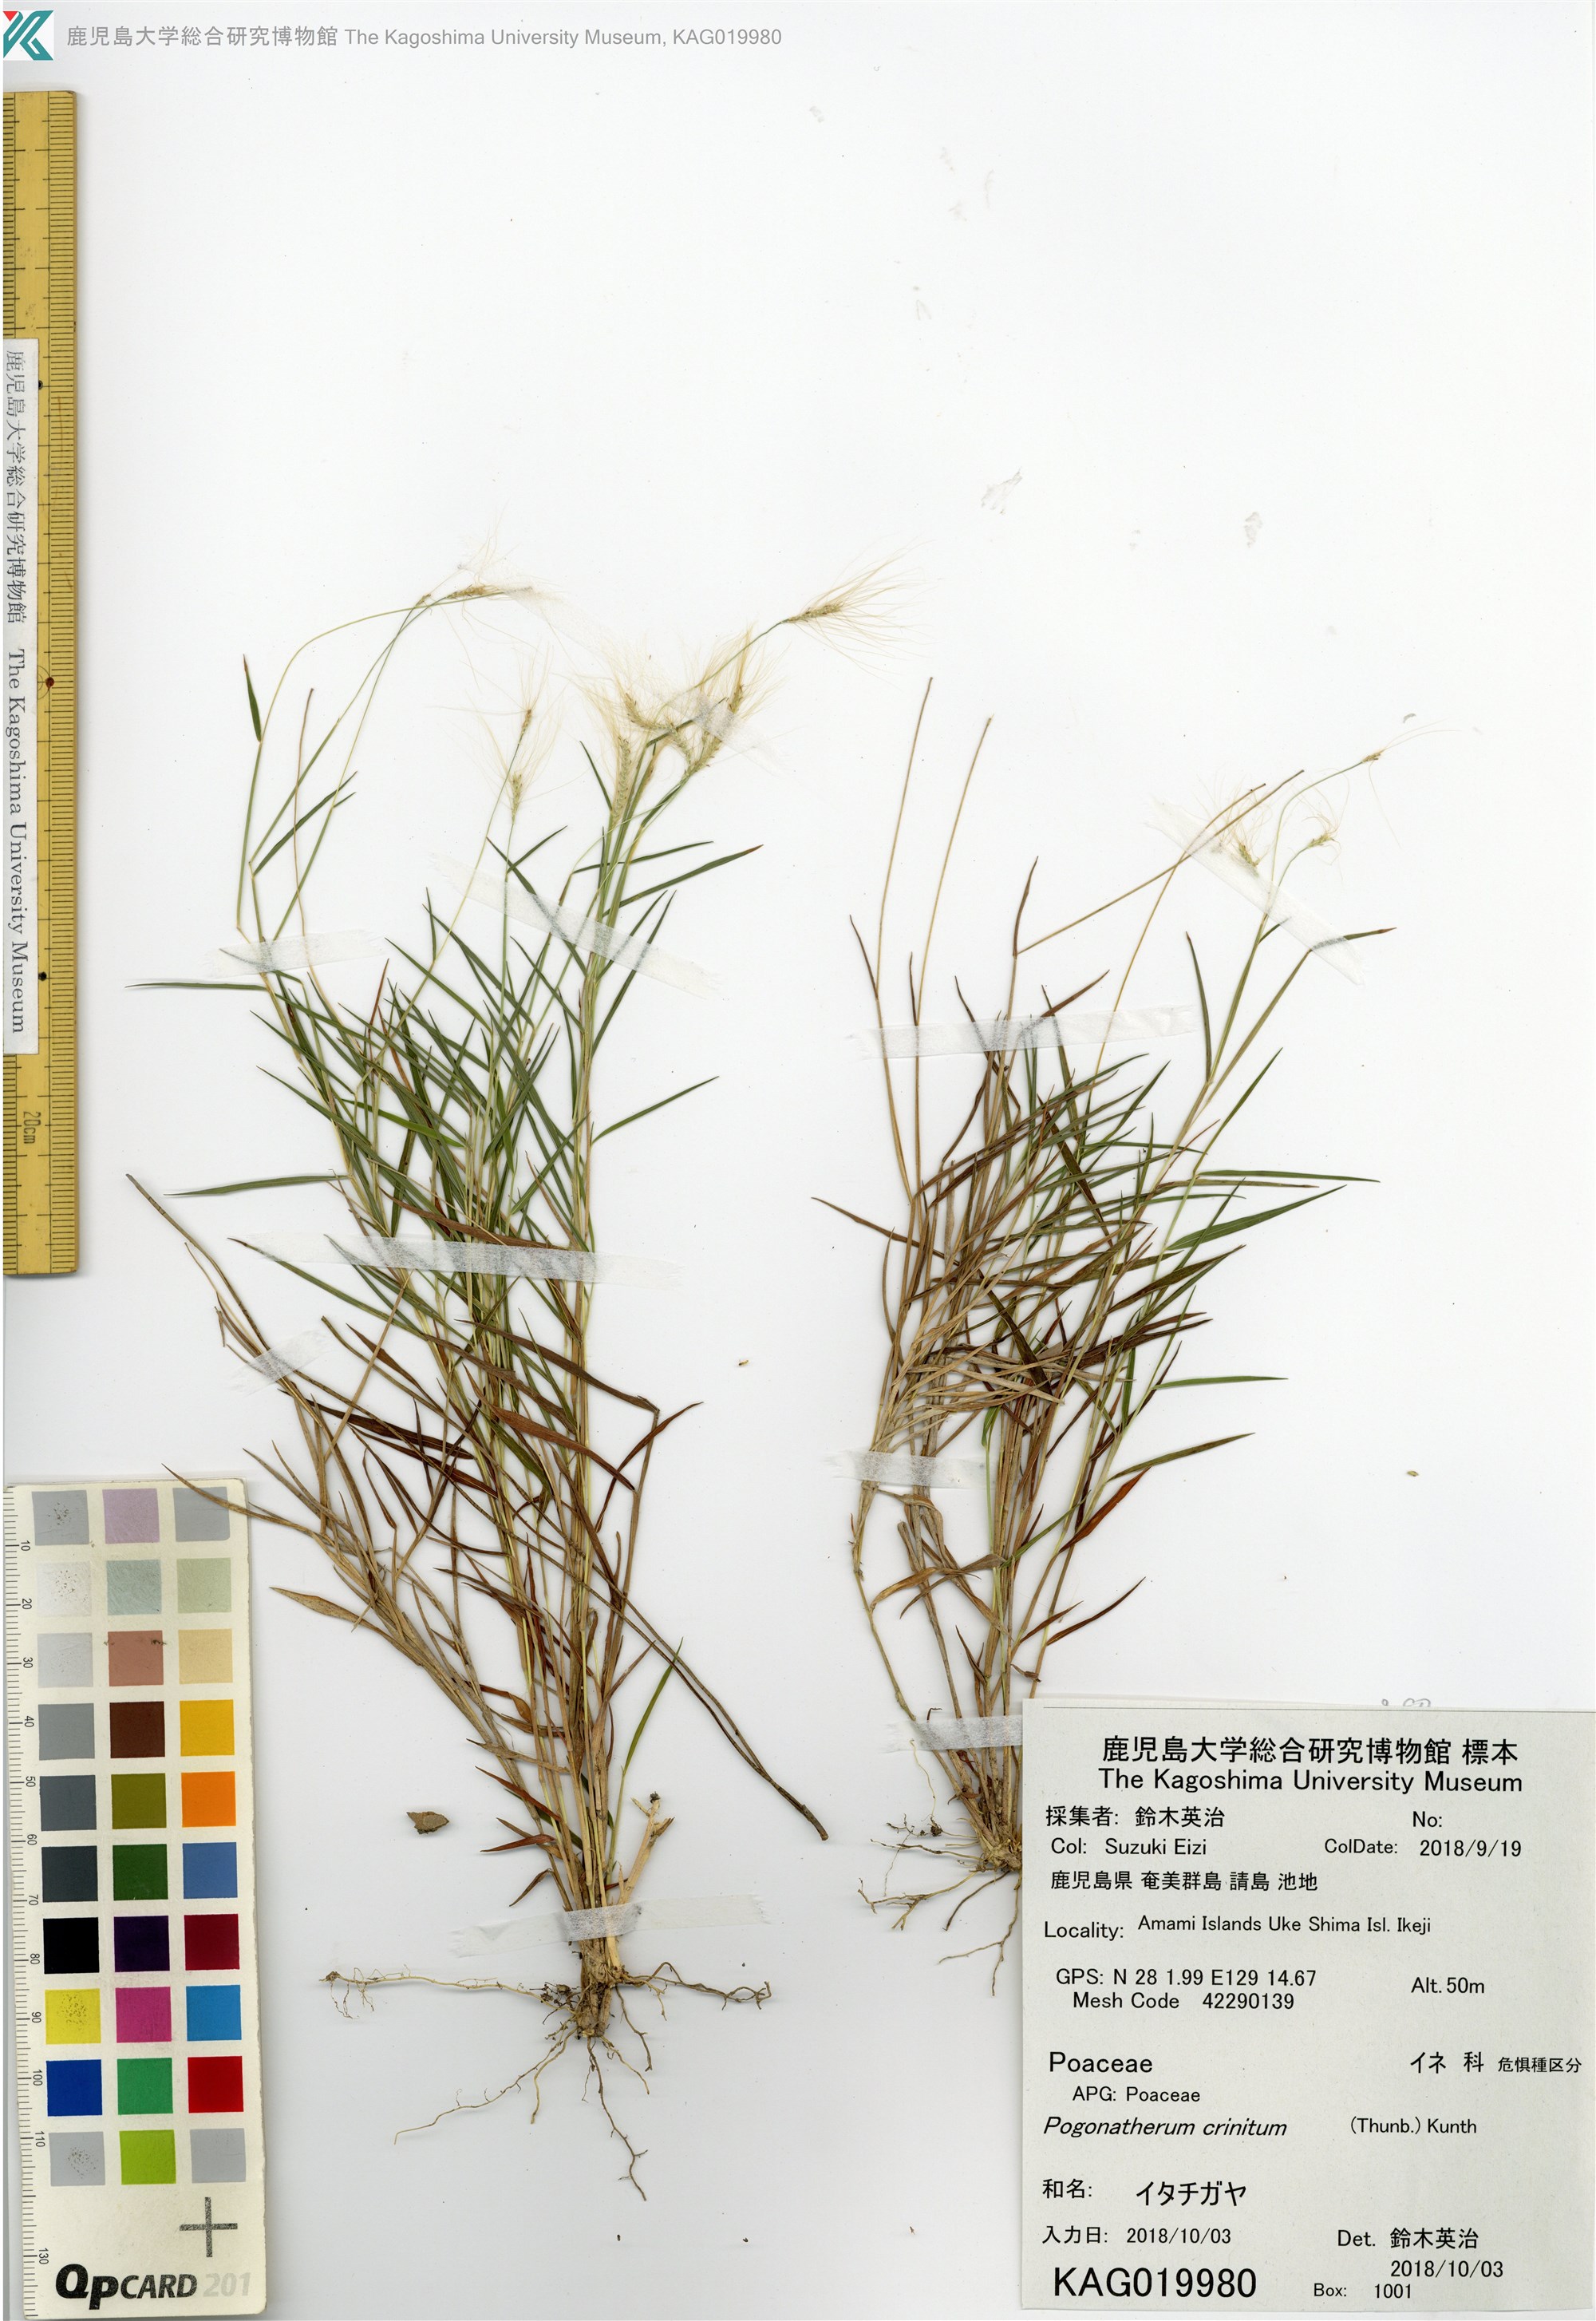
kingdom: Plantae
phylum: Tracheophyta
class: Liliopsida
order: Poales
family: Poaceae
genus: Pogonatherum
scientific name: Pogonatherum crinitum
